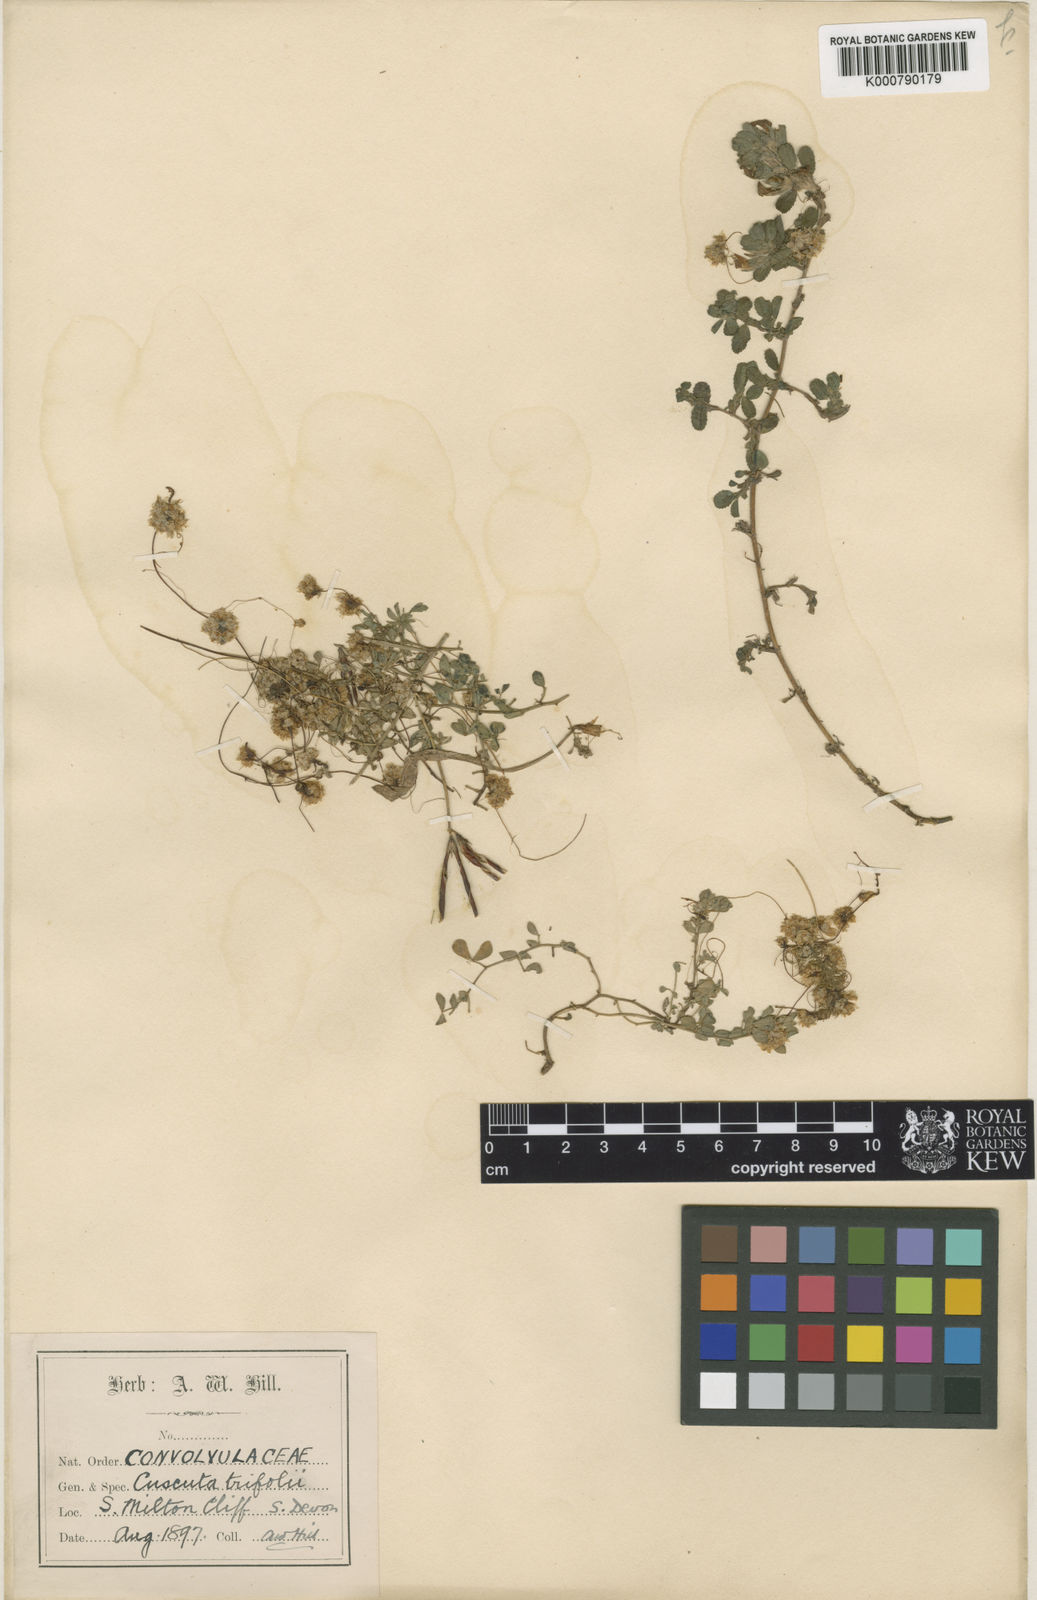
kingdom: Plantae
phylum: Tracheophyta
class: Magnoliopsida
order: Solanales
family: Convolvulaceae
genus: Cuscuta
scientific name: Cuscuta epithymum
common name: Clover dodder
